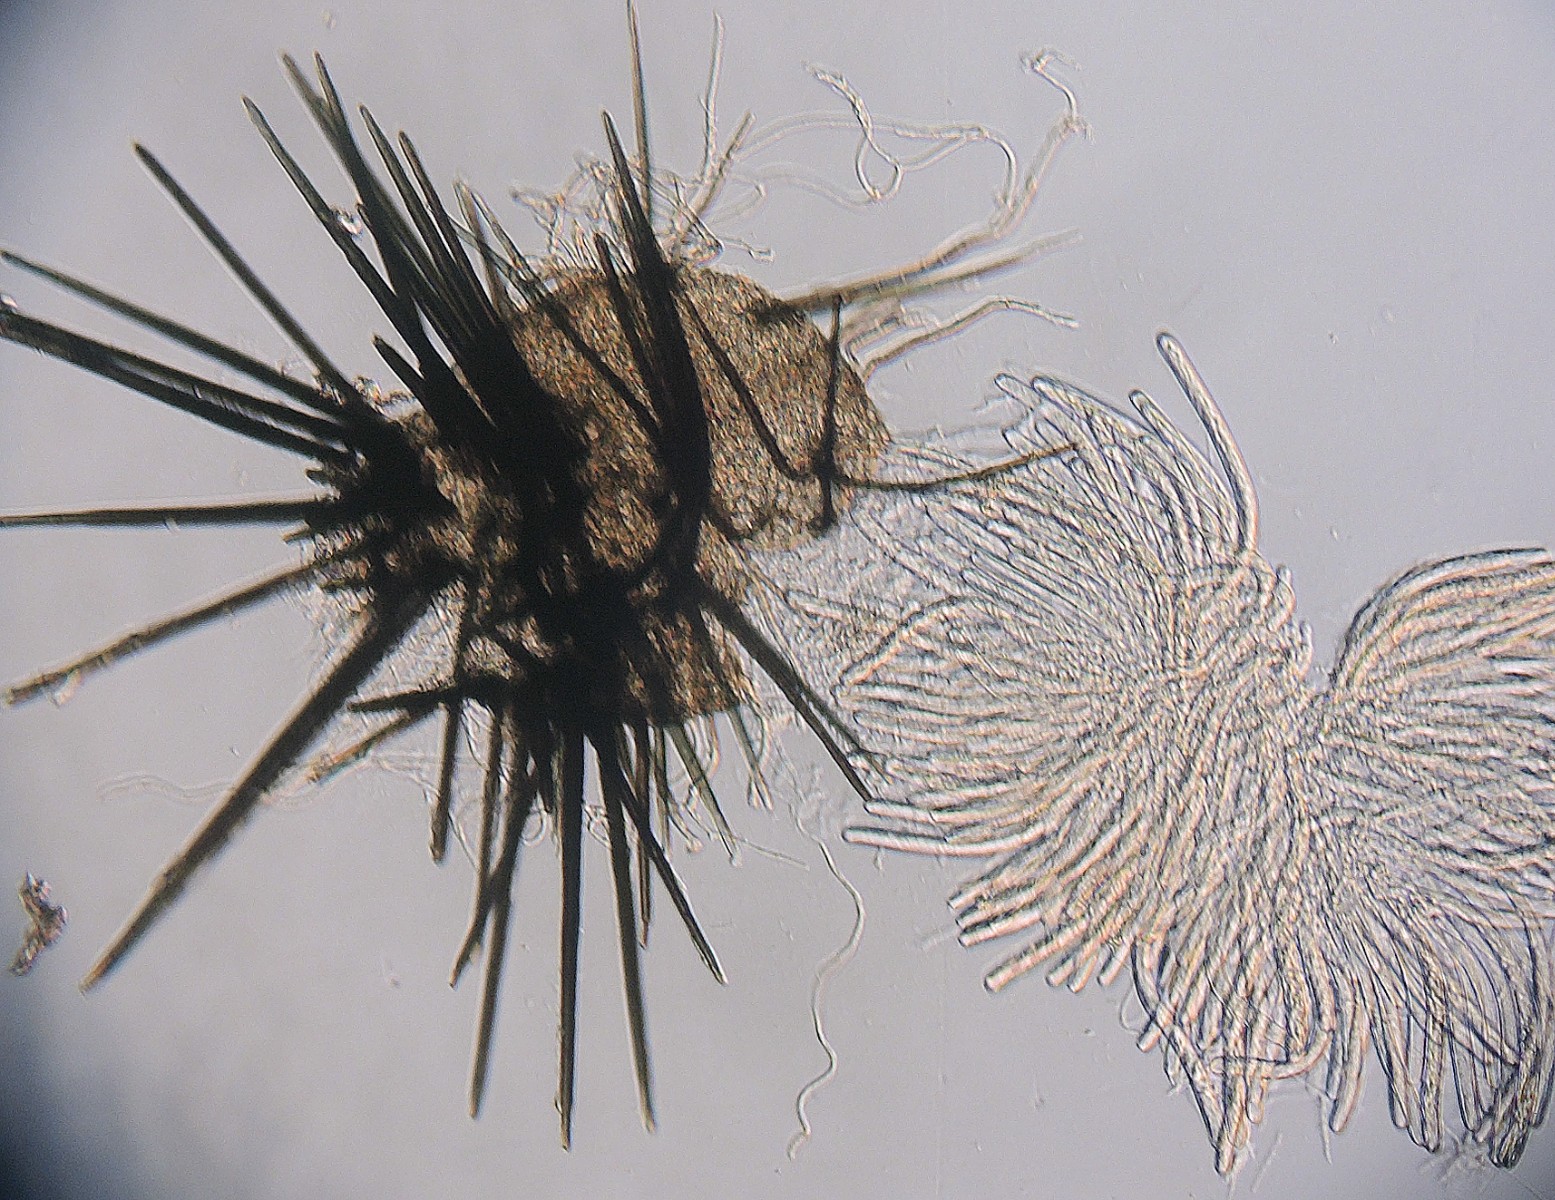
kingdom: Fungi
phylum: Ascomycota
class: Dothideomycetes
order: Tubeufiales
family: Tubeufiaceae
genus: Acanthophiobolus
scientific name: Acanthophiobolus helicosporus
